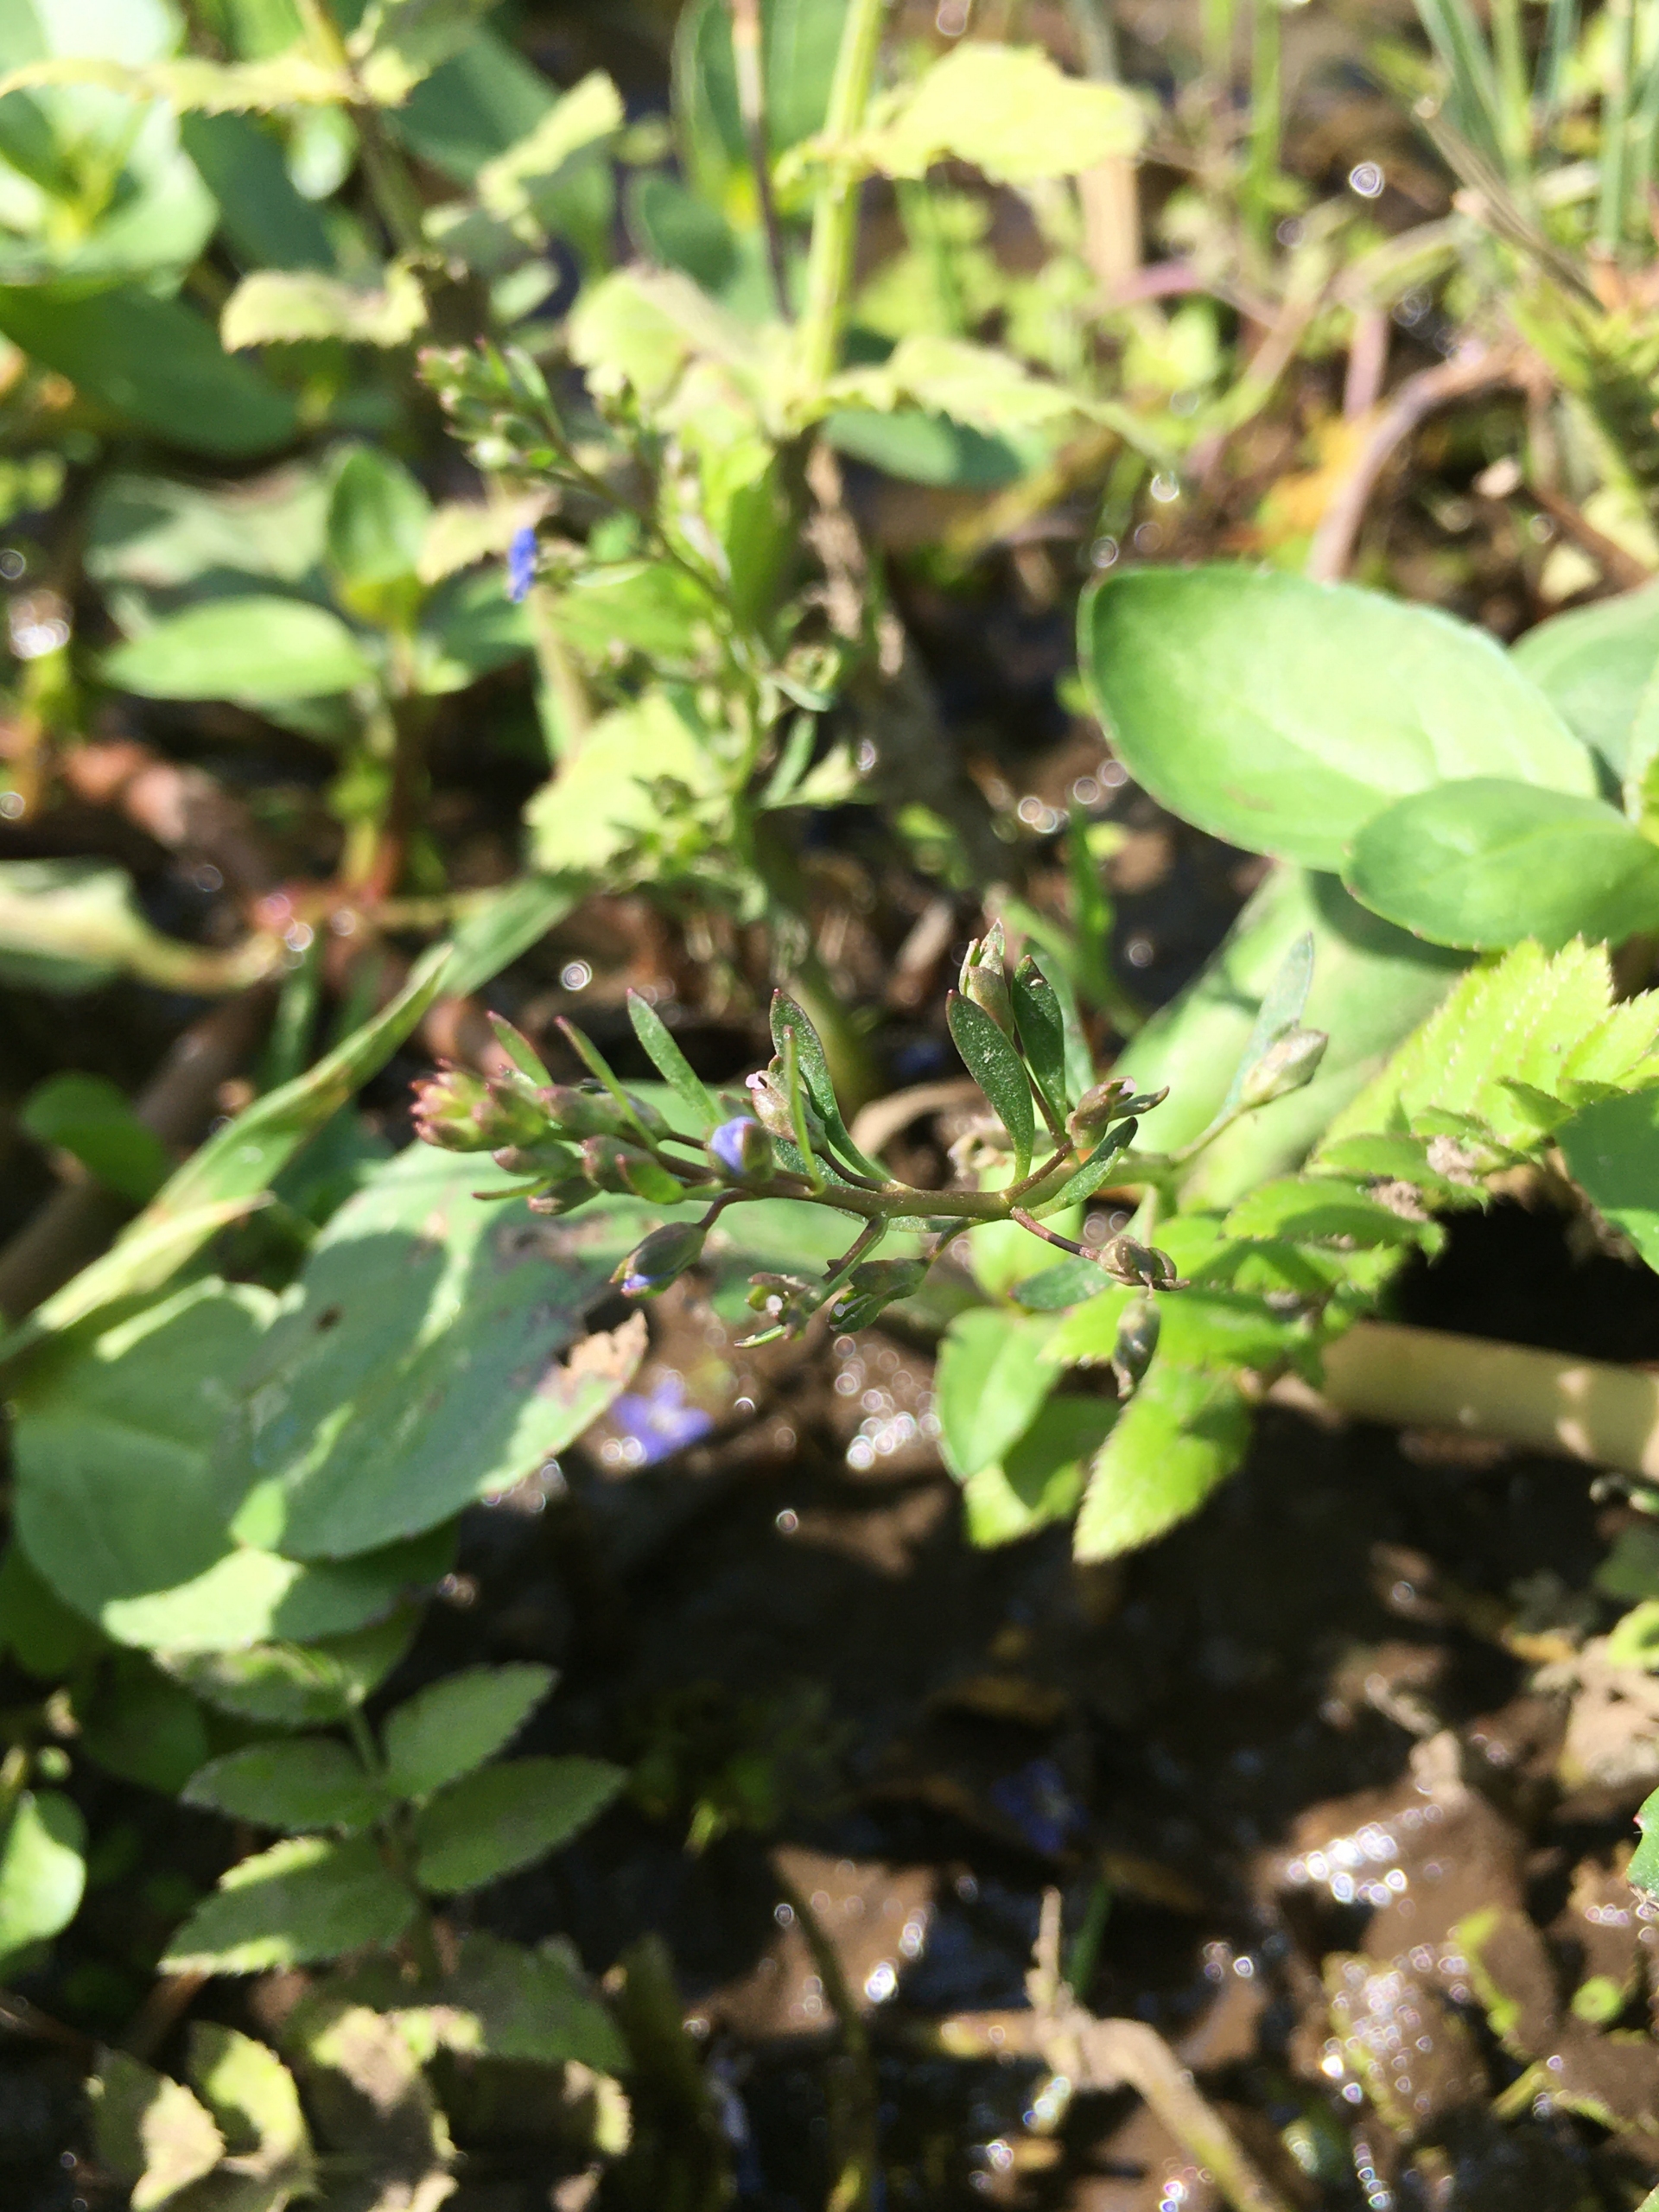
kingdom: Plantae
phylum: Tracheophyta
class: Magnoliopsida
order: Lamiales
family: Plantaginaceae
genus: Veronica
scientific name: Veronica beccabunga
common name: Tykbladet ærenpris
